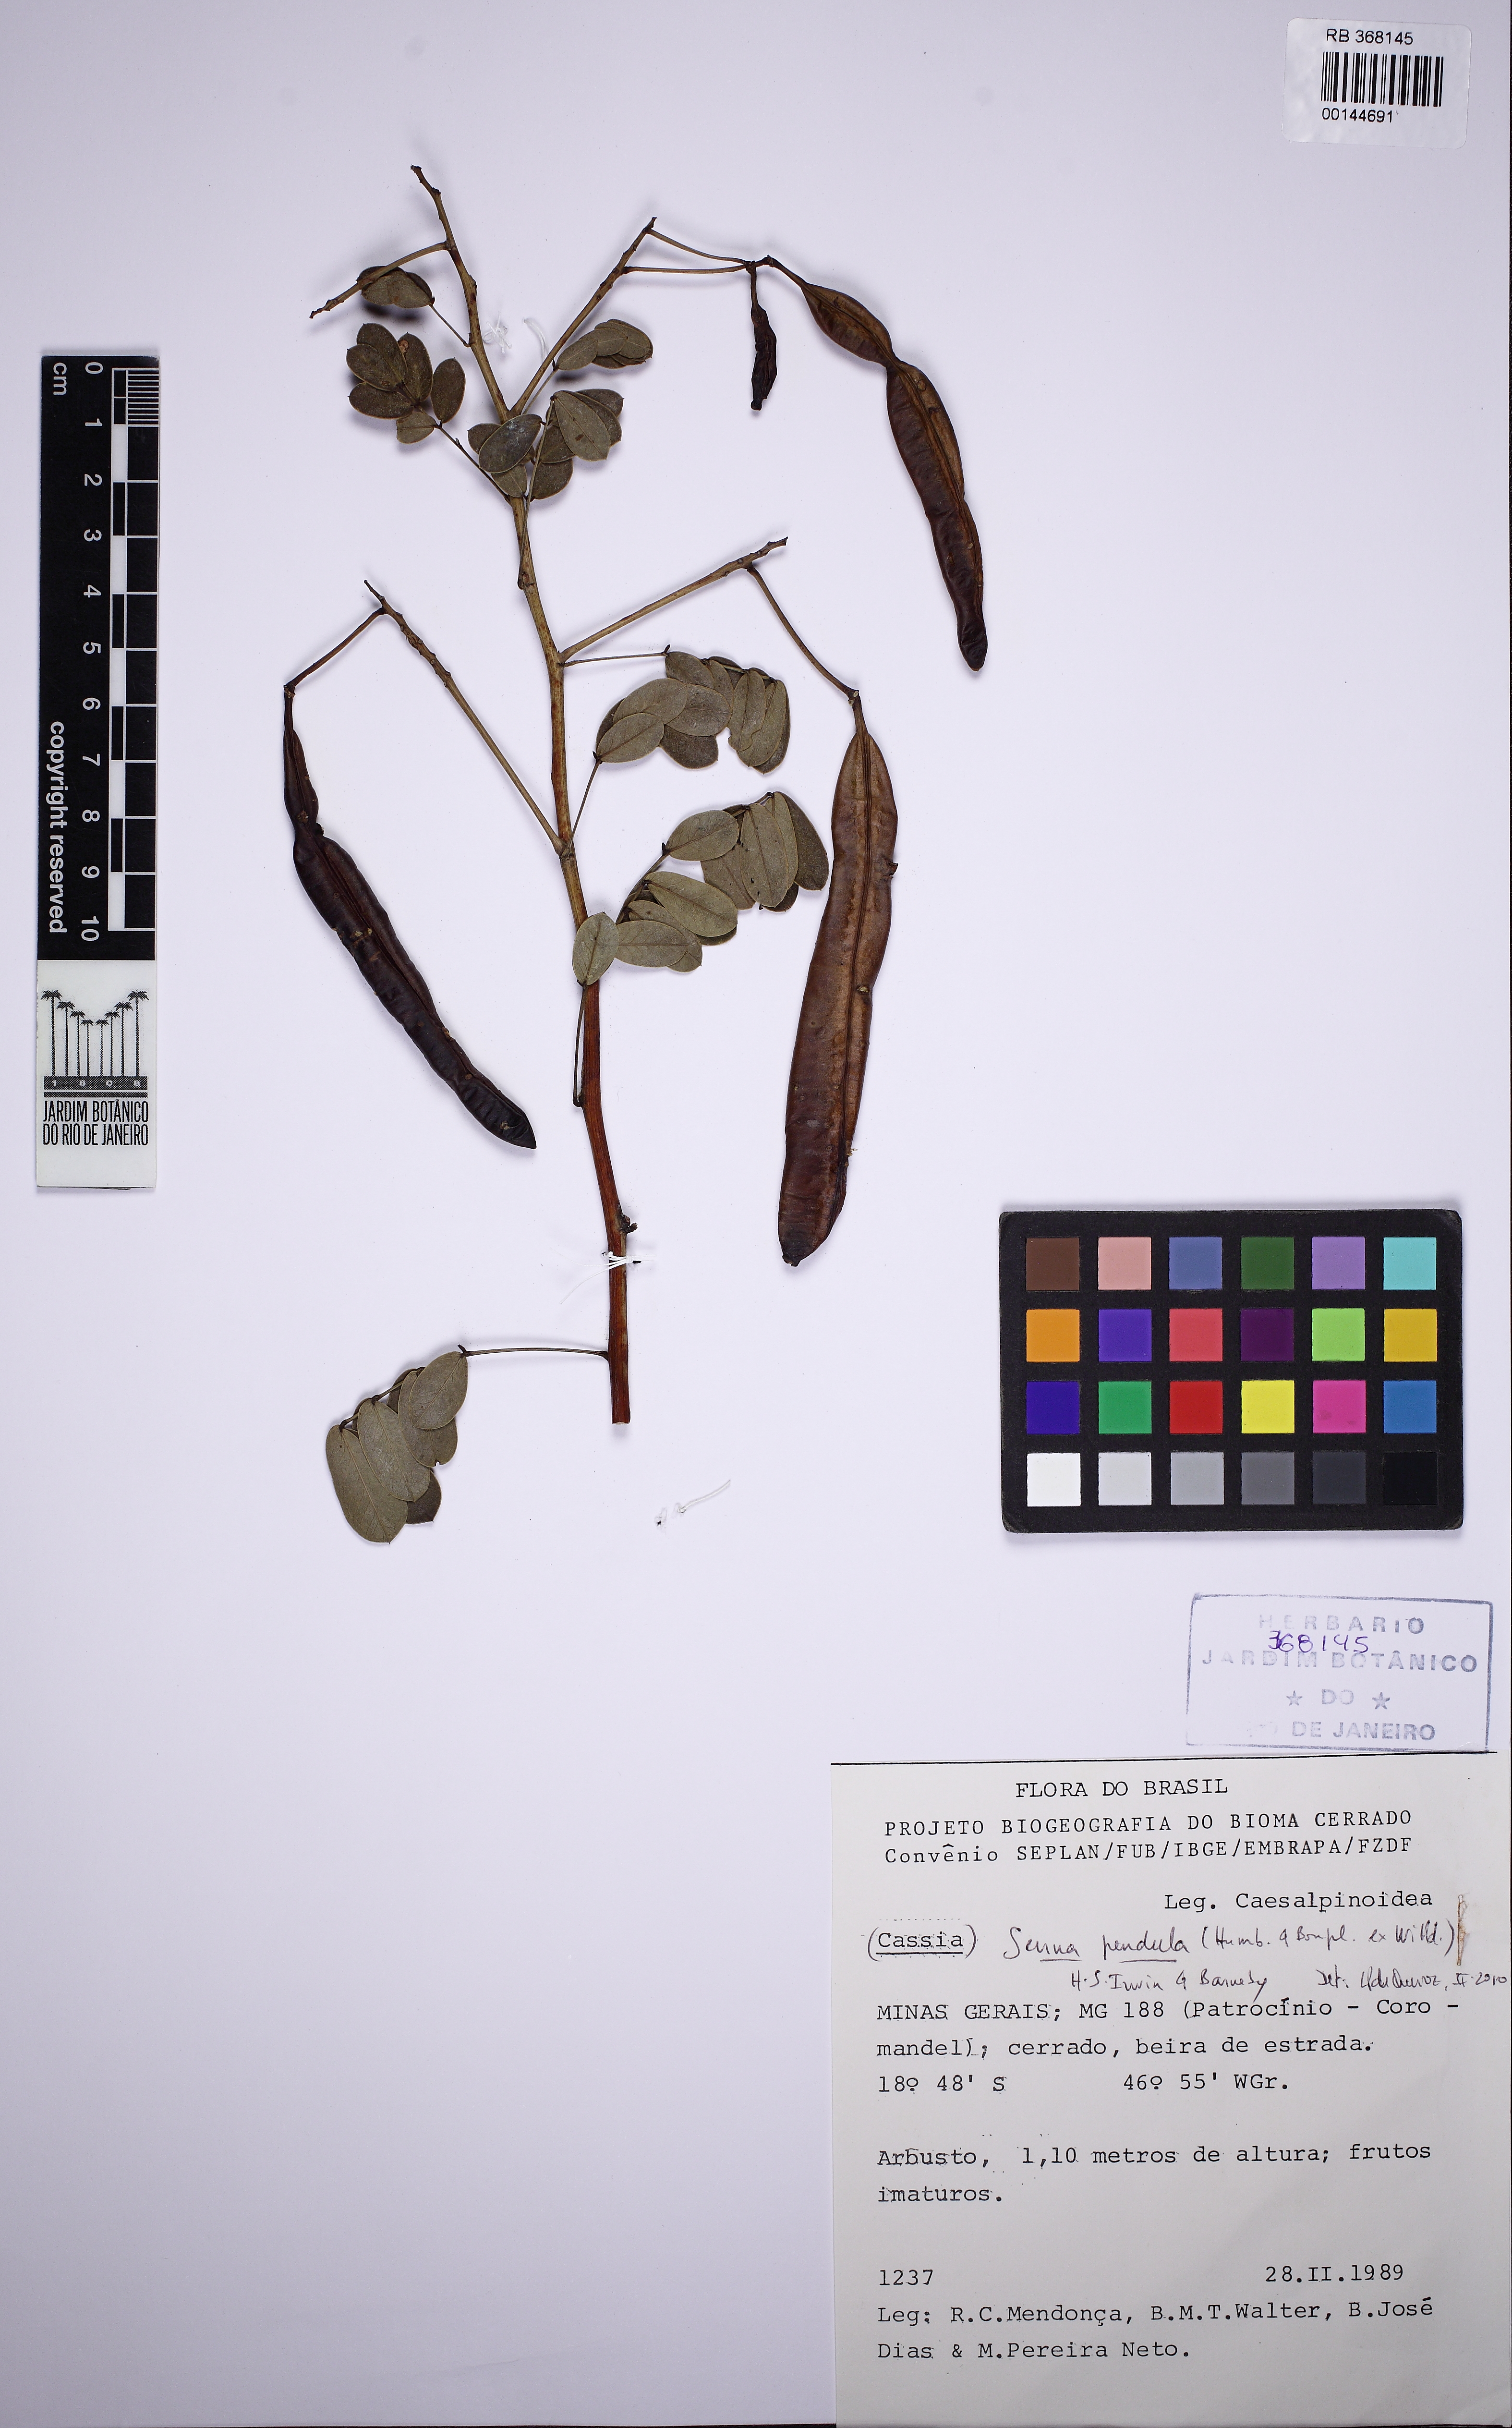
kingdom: Plantae
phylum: Tracheophyta
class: Magnoliopsida
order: Fabales
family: Fabaceae
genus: Senna
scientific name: Senna pendula
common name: Easter cassia
